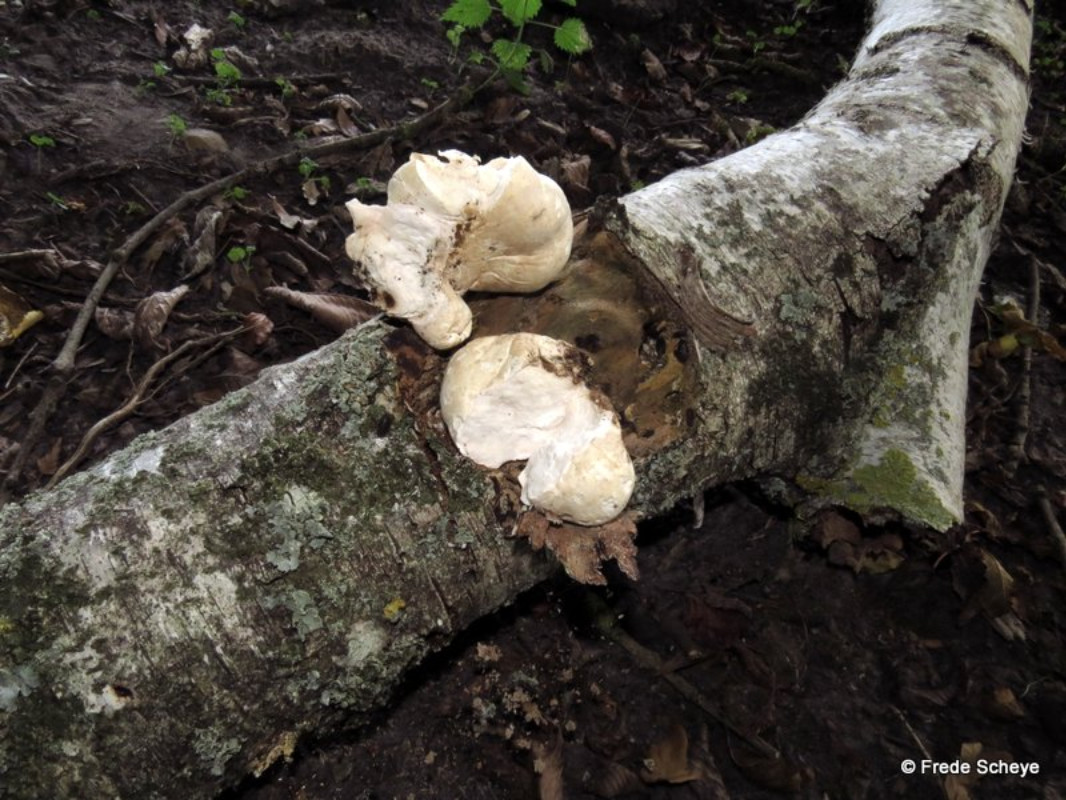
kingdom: Fungi
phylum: Basidiomycota
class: Agaricomycetes
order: Polyporales
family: Fomitopsidaceae
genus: Fomitopsis
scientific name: Fomitopsis betulina
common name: birkeporesvamp
